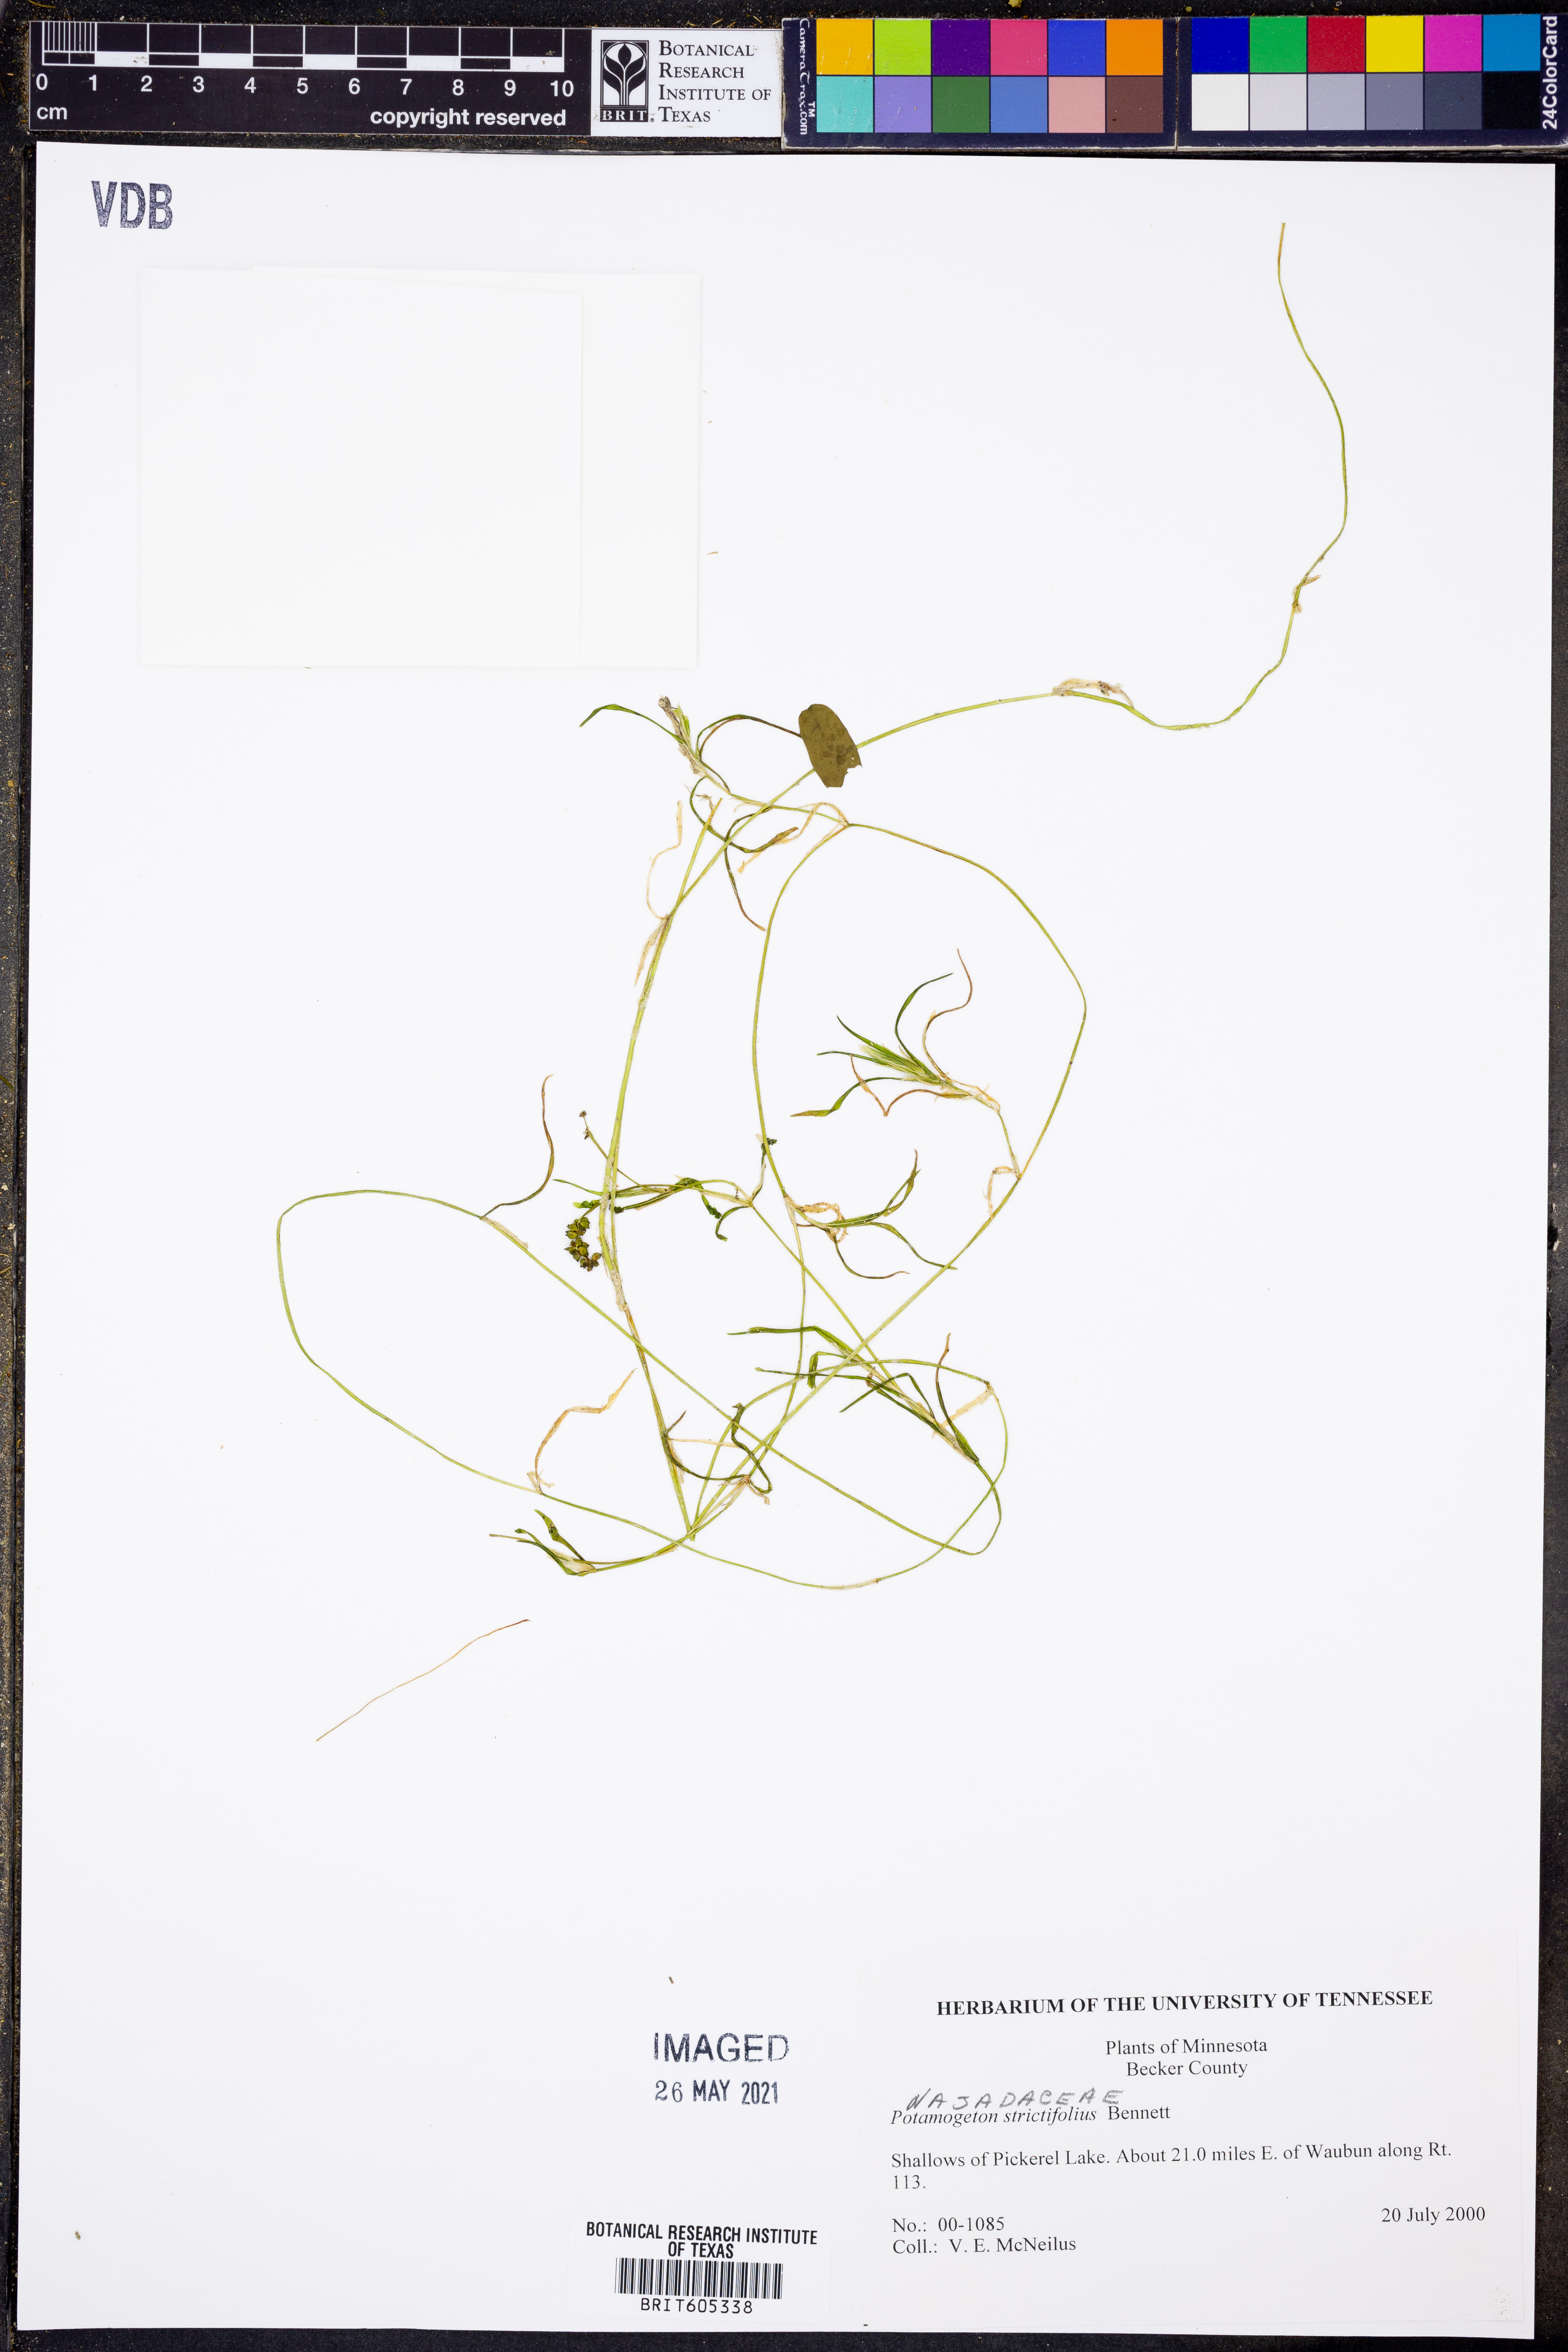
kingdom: Plantae
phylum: Tracheophyta
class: Liliopsida
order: Alismatales
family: Potamogetonaceae
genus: Potamogeton
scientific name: Potamogeton strictifolius
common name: Linear-leaved pondweed
